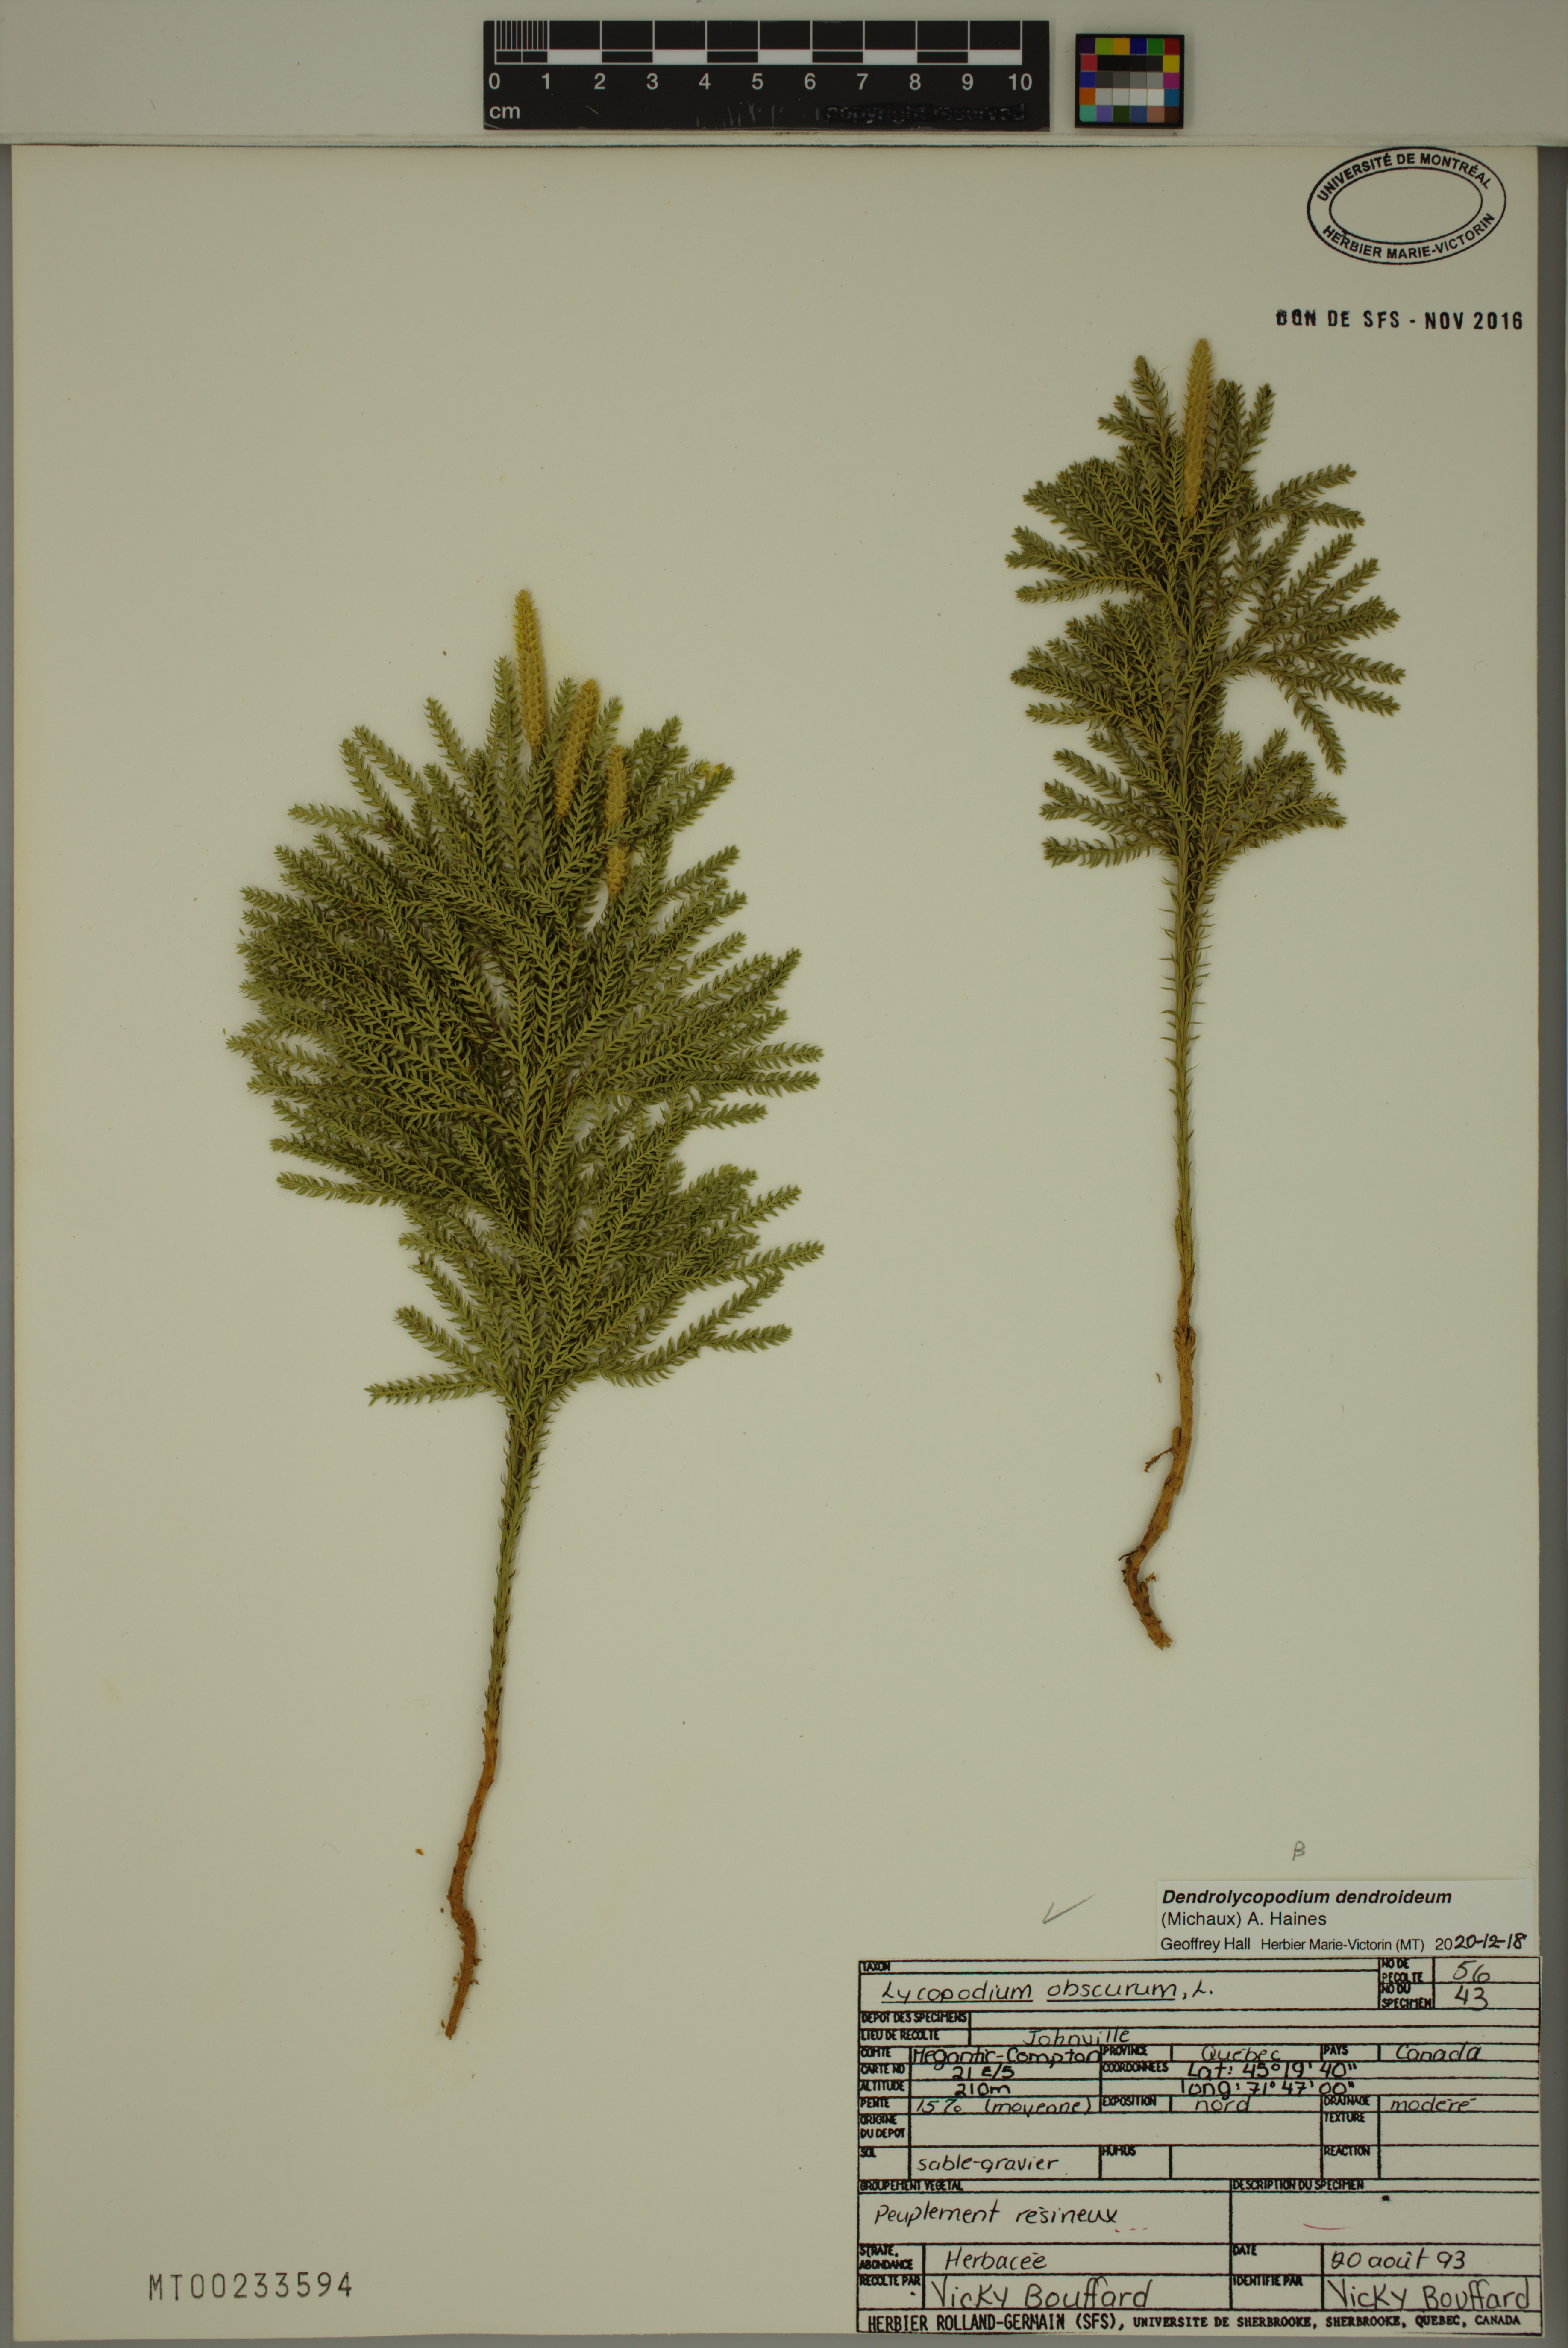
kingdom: Plantae
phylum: Tracheophyta
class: Lycopodiopsida
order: Lycopodiales
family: Lycopodiaceae
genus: Dendrolycopodium
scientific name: Dendrolycopodium dendroideum
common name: Northern tree-clubmoss
